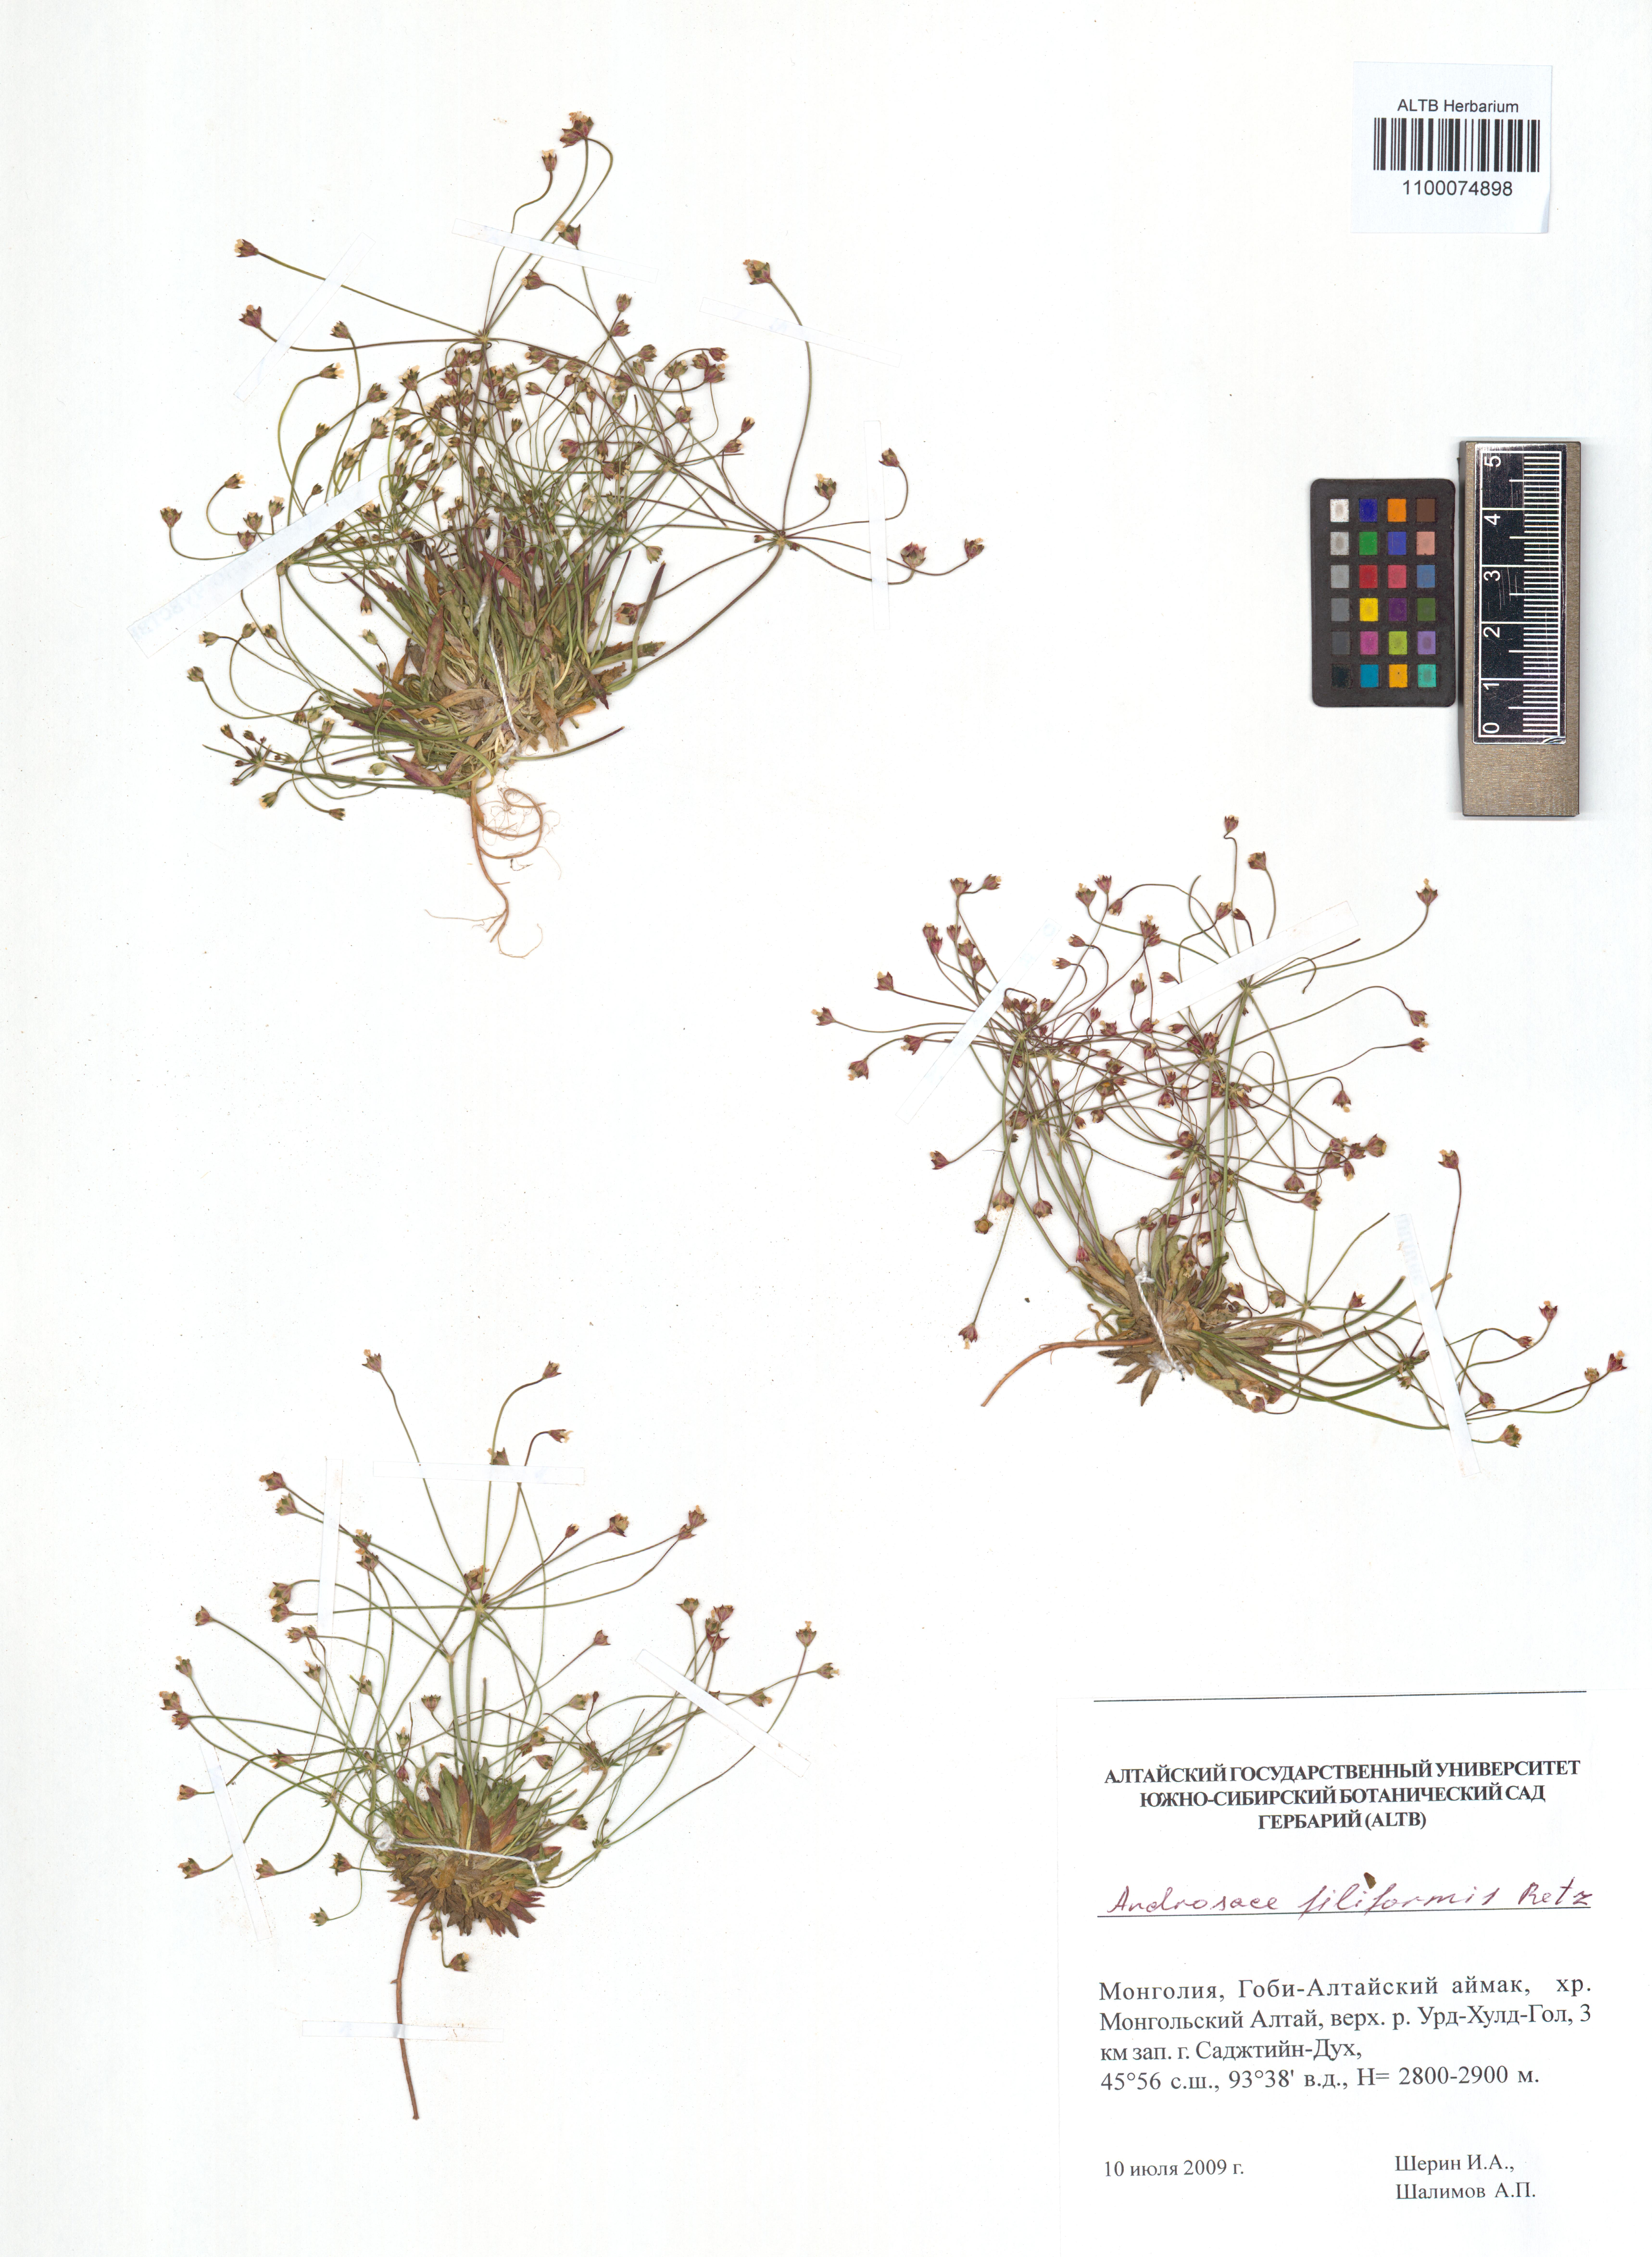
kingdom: Plantae
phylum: Tracheophyta
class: Magnoliopsida
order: Ericales
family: Primulaceae
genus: Androsace
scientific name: Androsace filiformis
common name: Filiform rock jasmine
